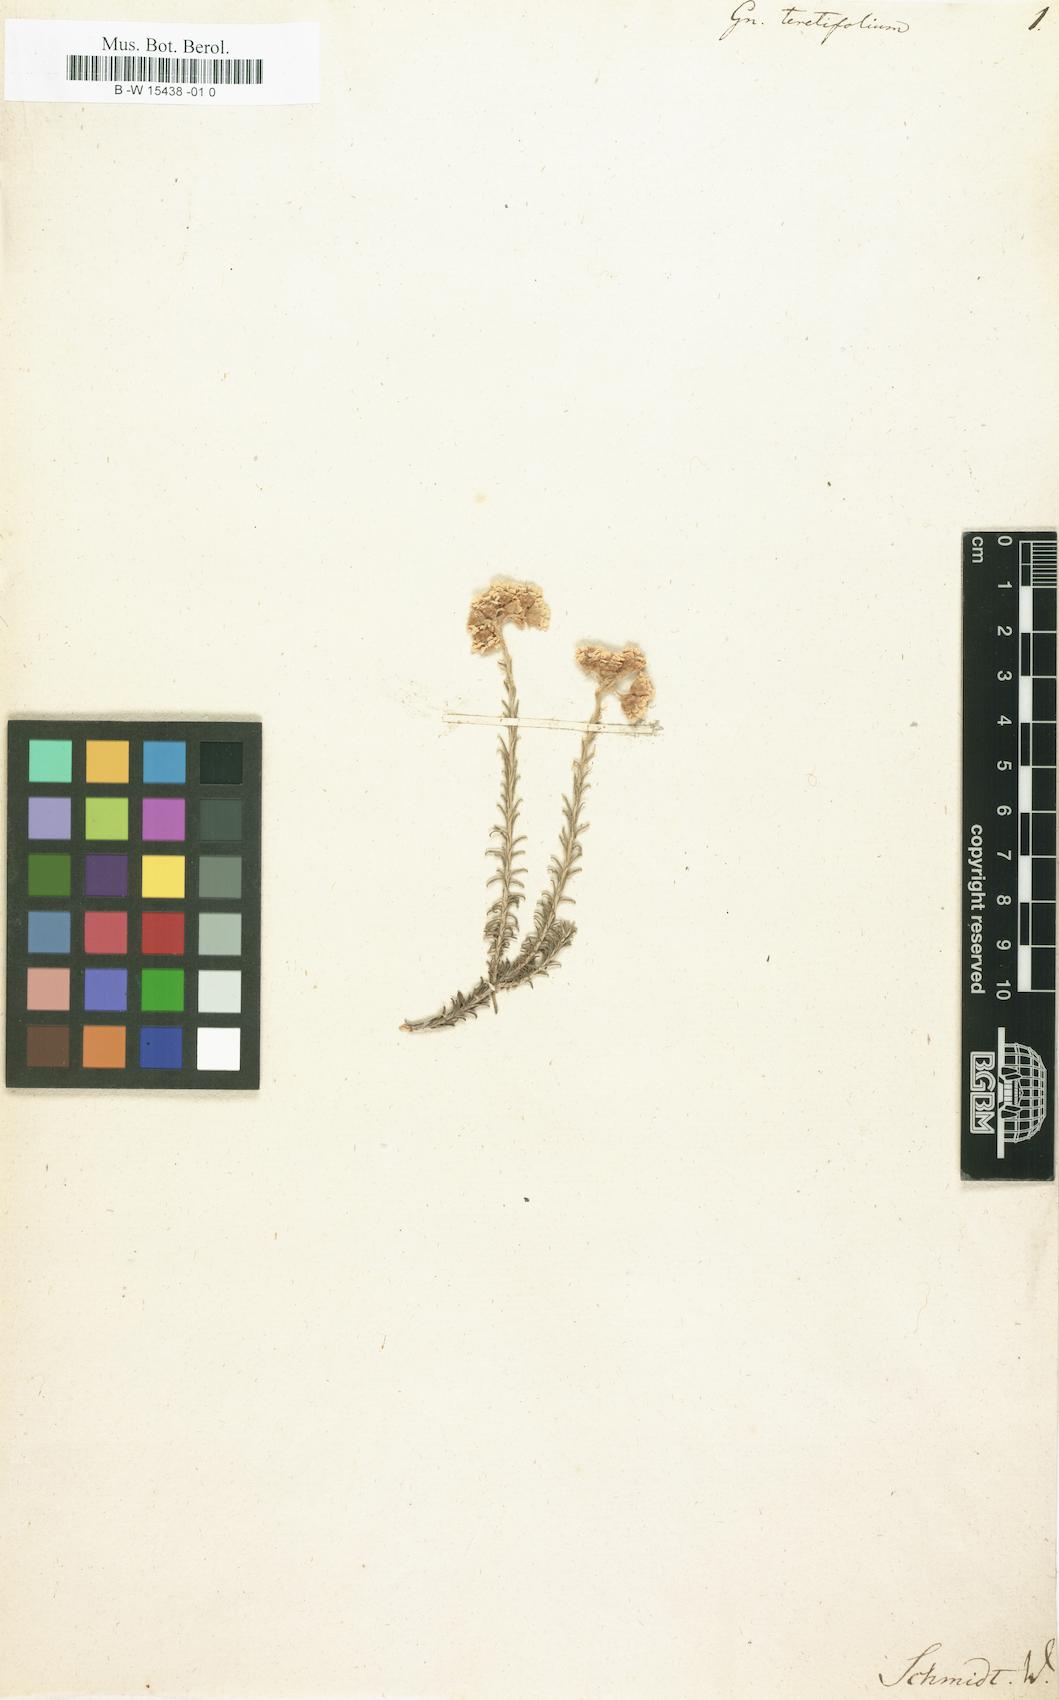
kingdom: Plantae
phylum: Tracheophyta
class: Magnoliopsida
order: Asterales
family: Asteraceae
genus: Helichrysum
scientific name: Helichrysum teretifolium
